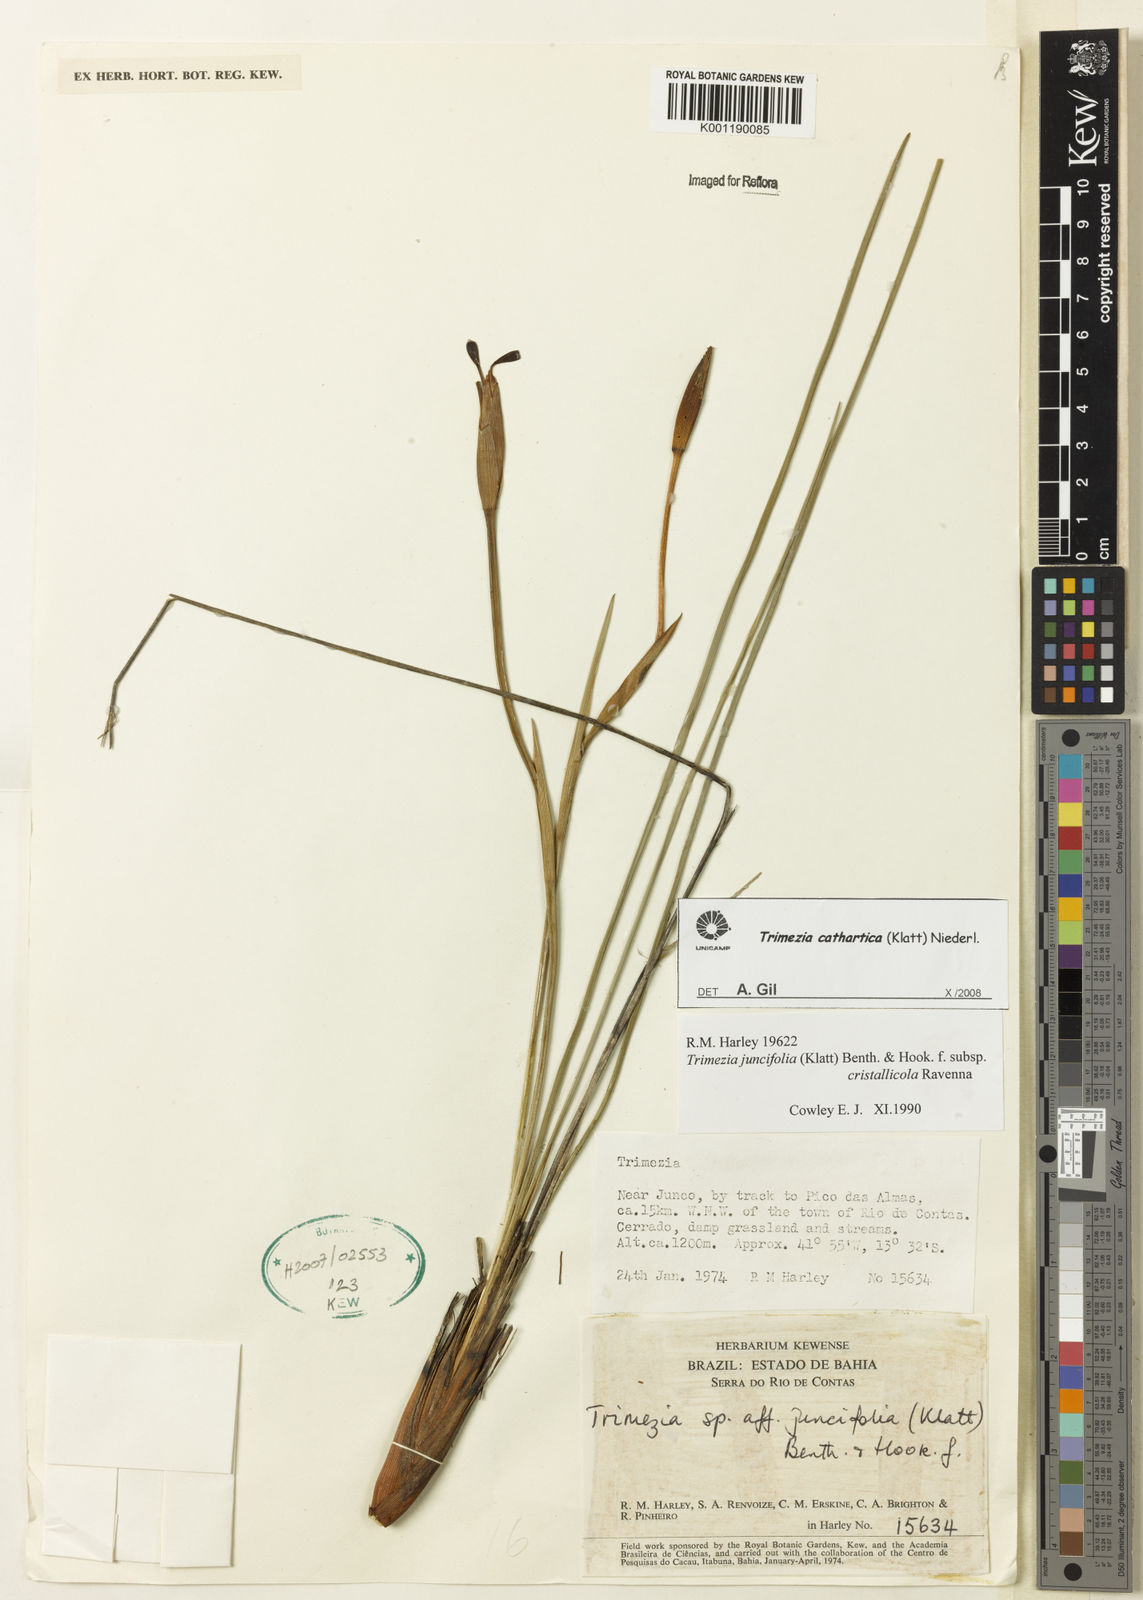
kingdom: Plantae
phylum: Tracheophyta
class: Liliopsida
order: Asparagales
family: Iridaceae
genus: Trimezia
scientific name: Trimezia cathartica
